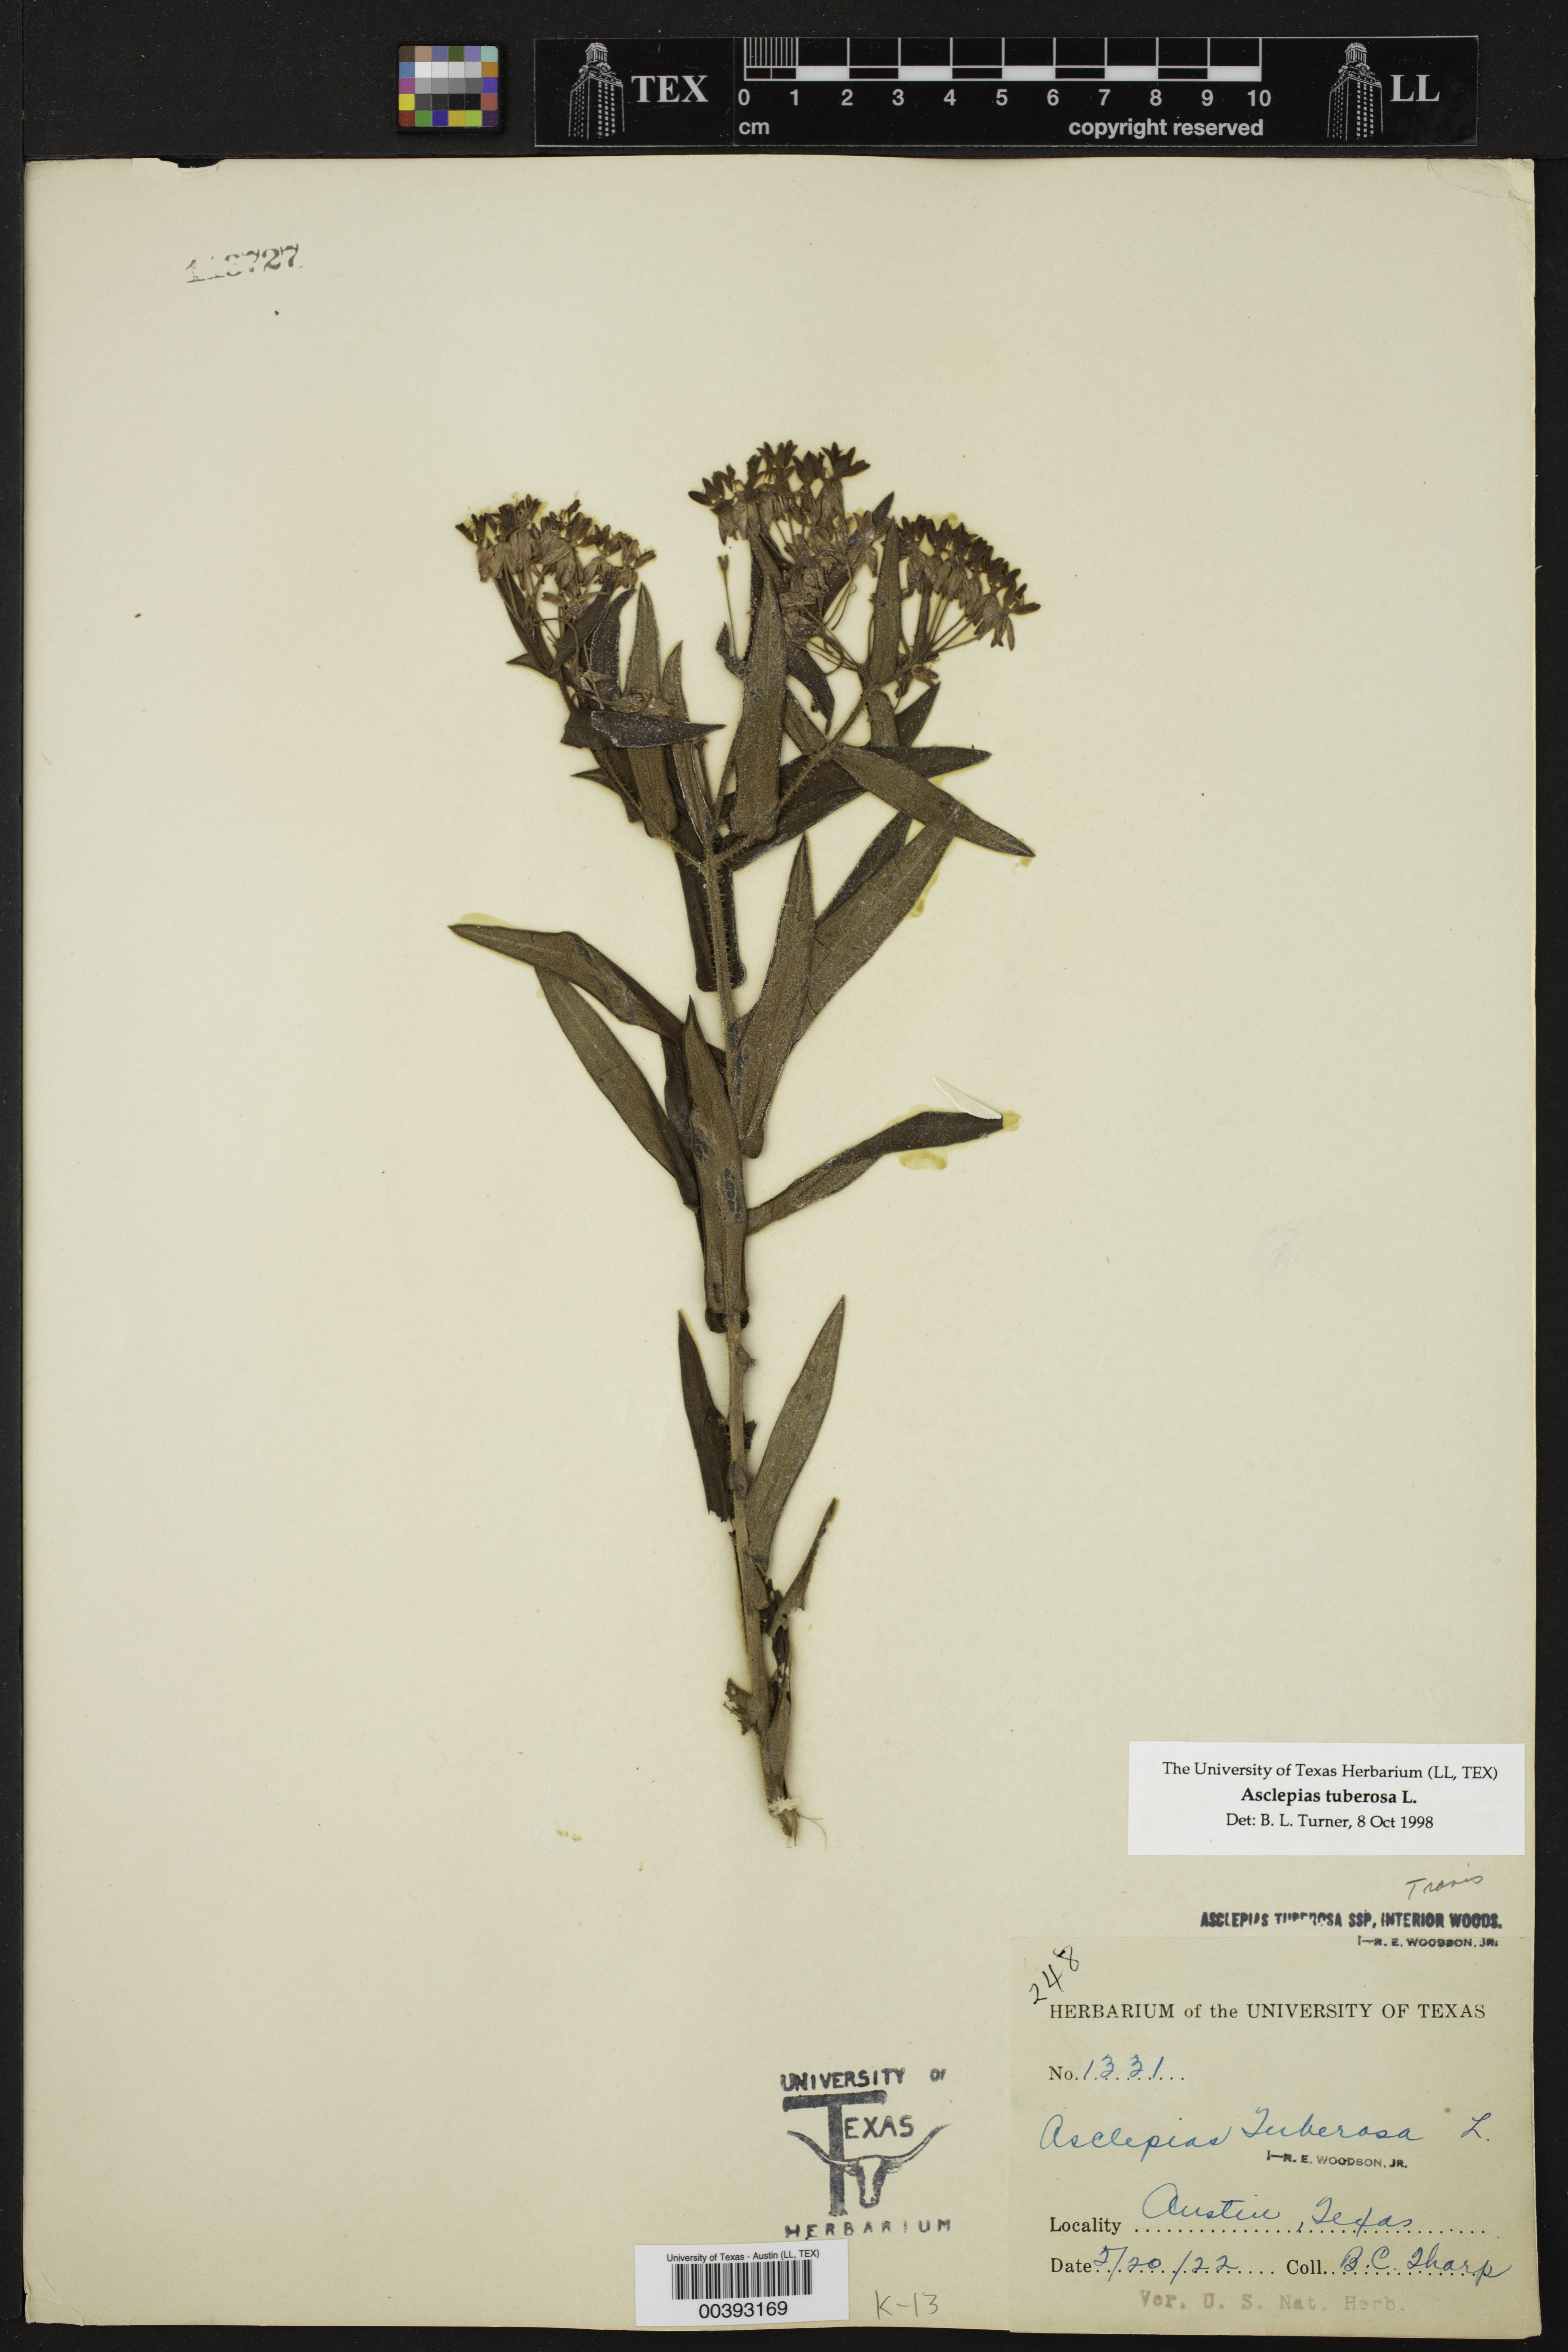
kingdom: Plantae
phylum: Tracheophyta
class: Magnoliopsida
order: Gentianales
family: Apocynaceae
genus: Asclepias
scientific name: Asclepias tuberosa
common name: Butterfly milkweed
